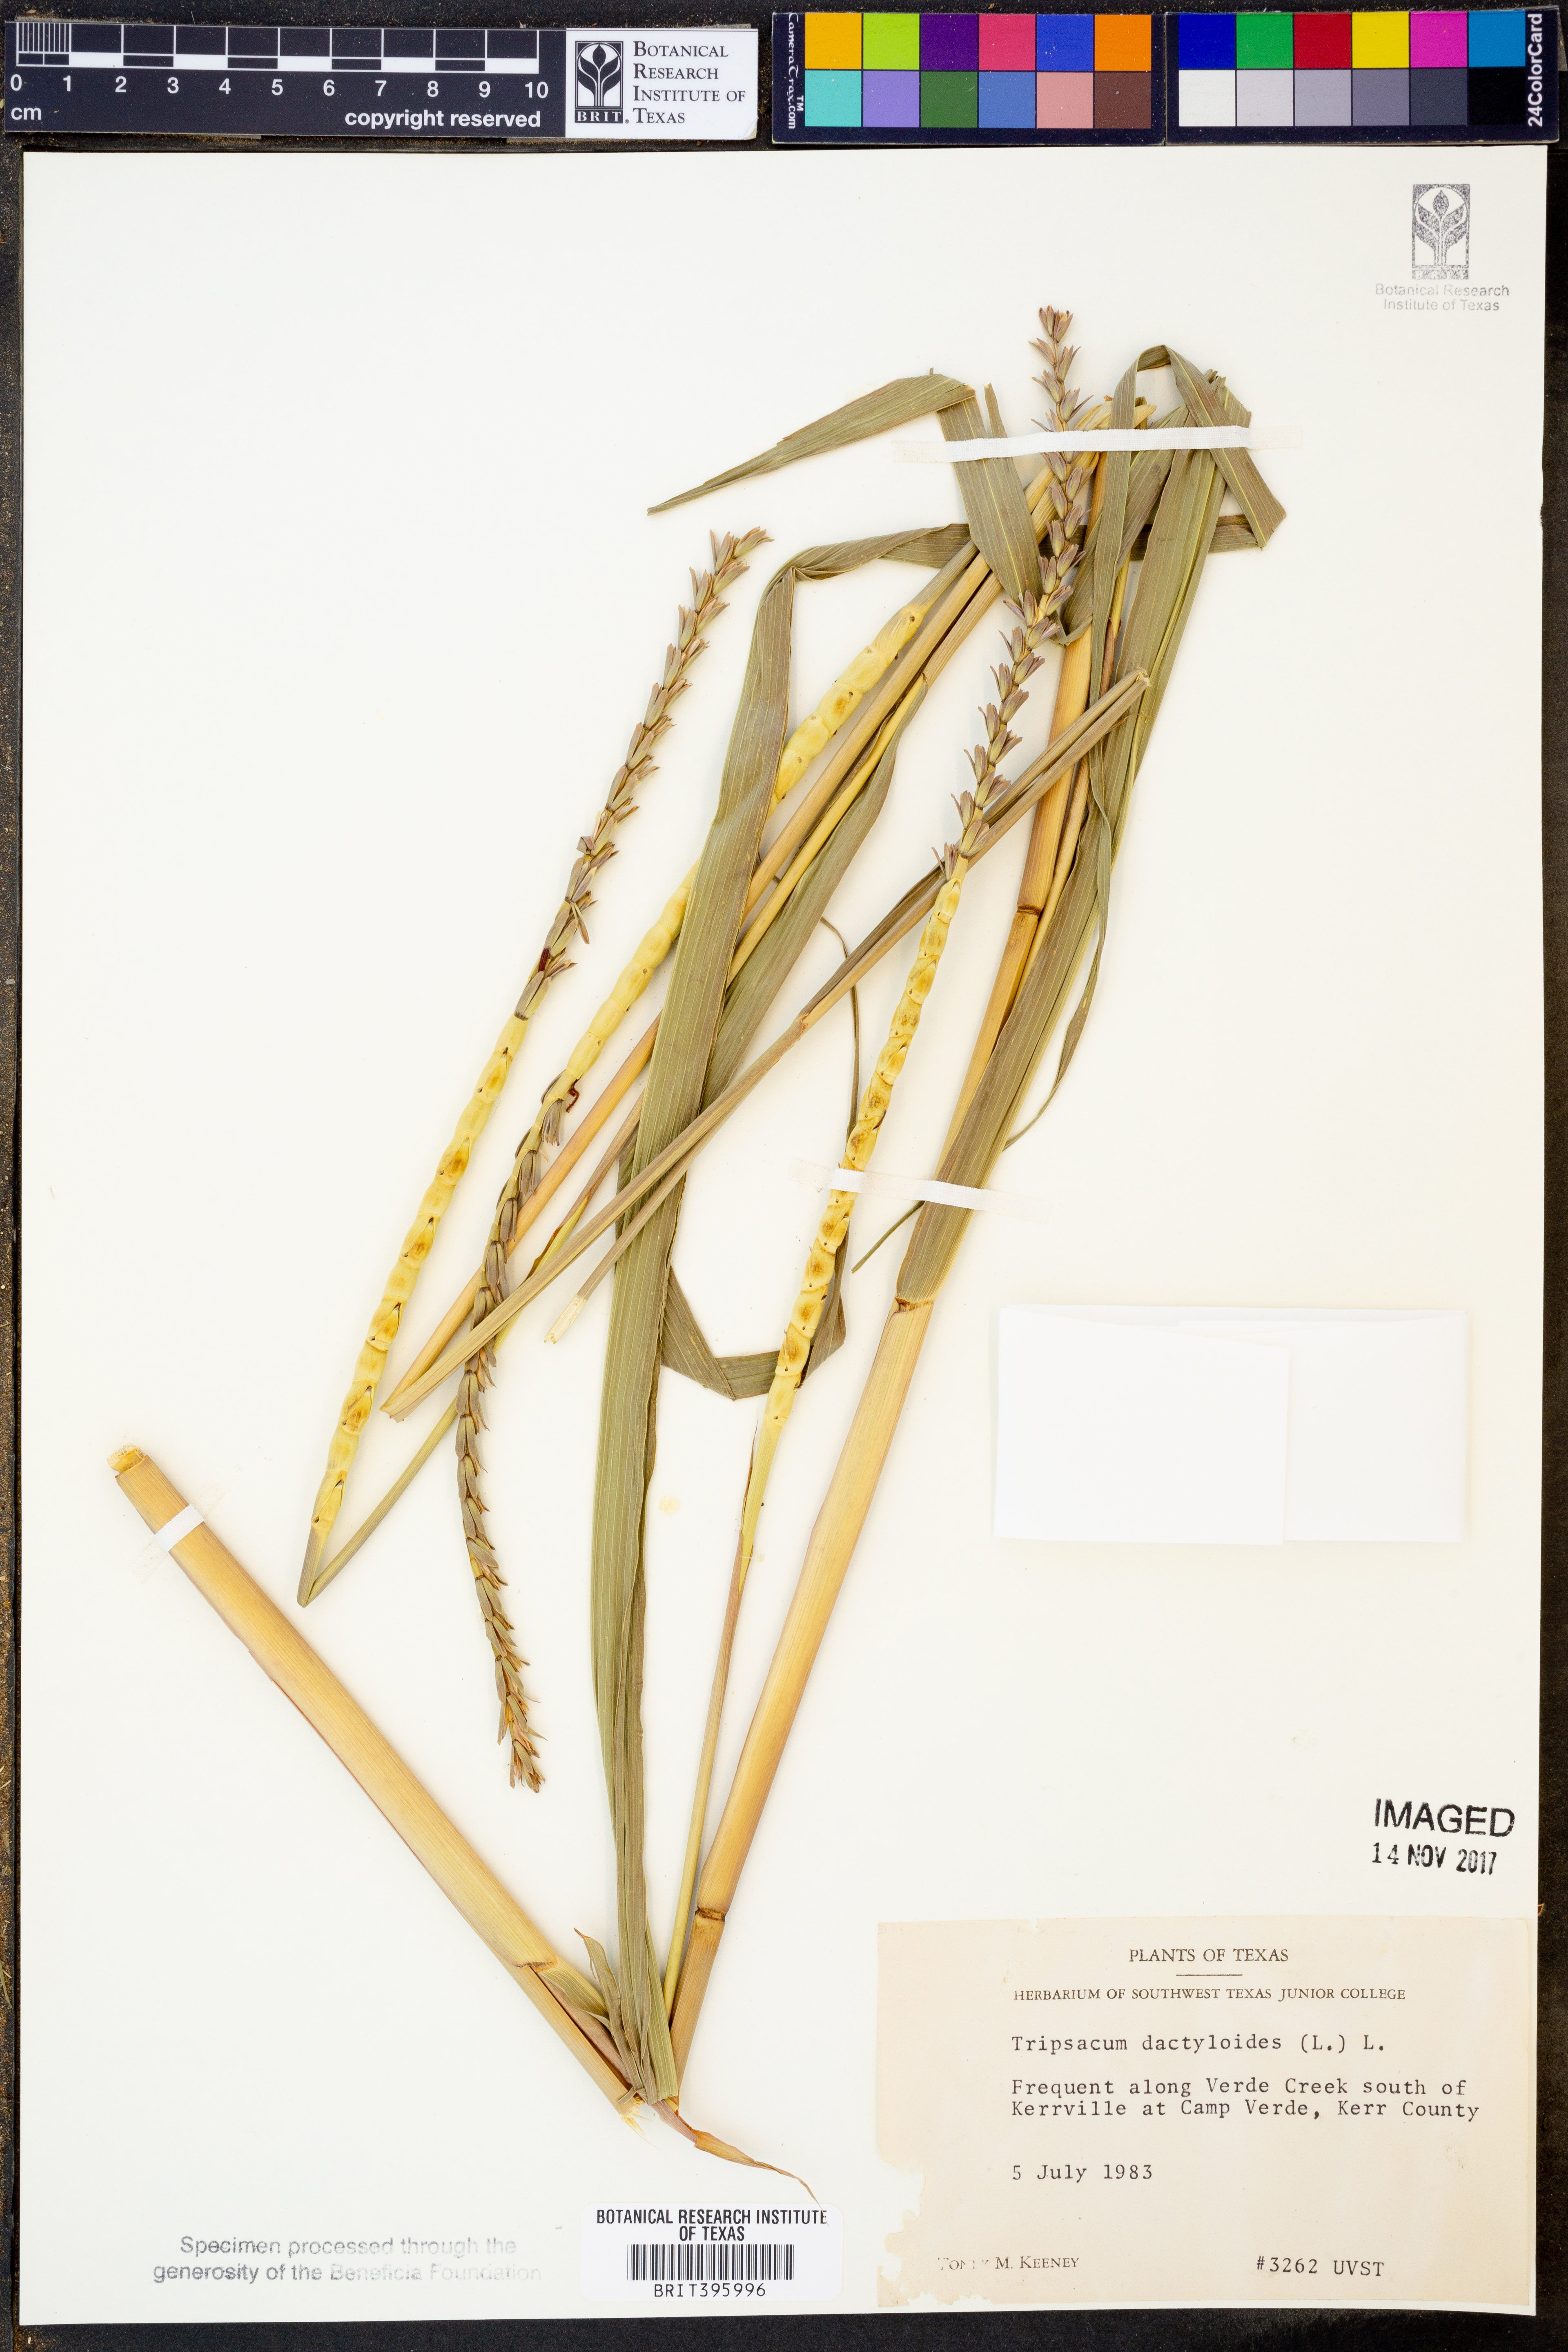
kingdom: Plantae
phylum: Tracheophyta
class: Liliopsida
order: Poales
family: Poaceae
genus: Tripsacum
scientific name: Tripsacum dactyloides
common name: Buffalo-grass
